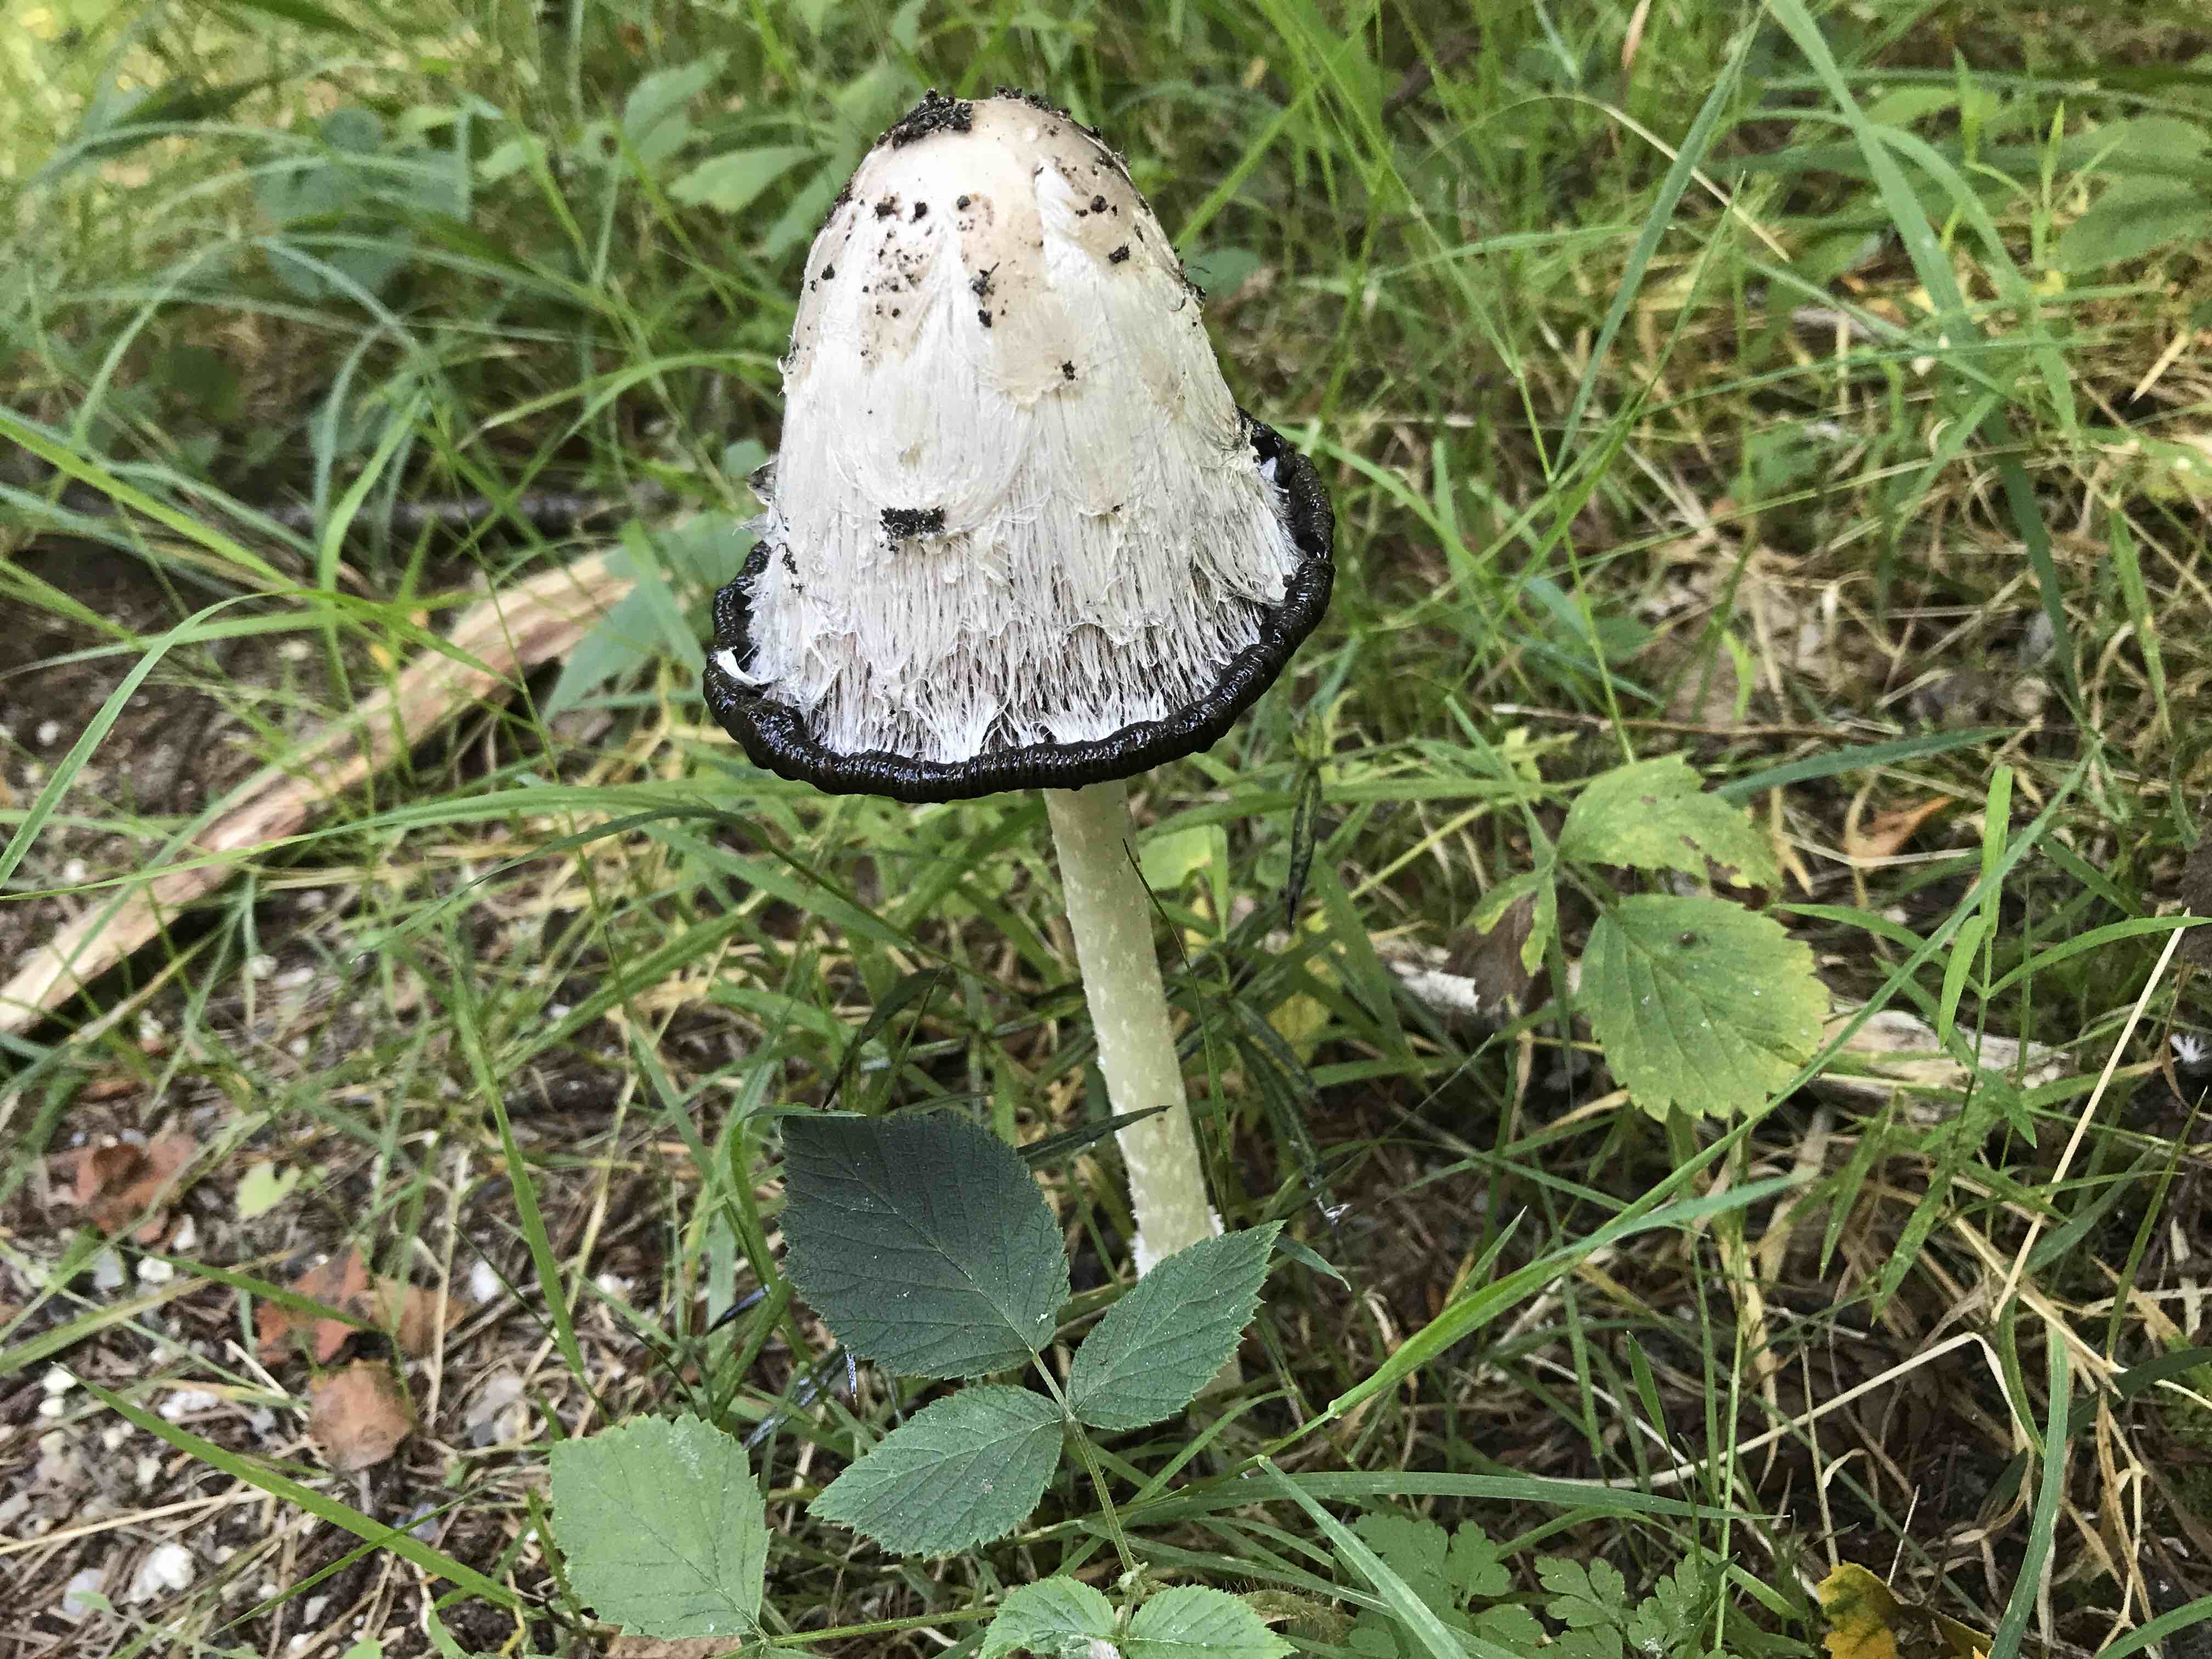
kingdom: Fungi
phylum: Basidiomycota
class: Agaricomycetes
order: Agaricales
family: Agaricaceae
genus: Coprinus
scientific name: Coprinus comatus
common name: stor parykhat
